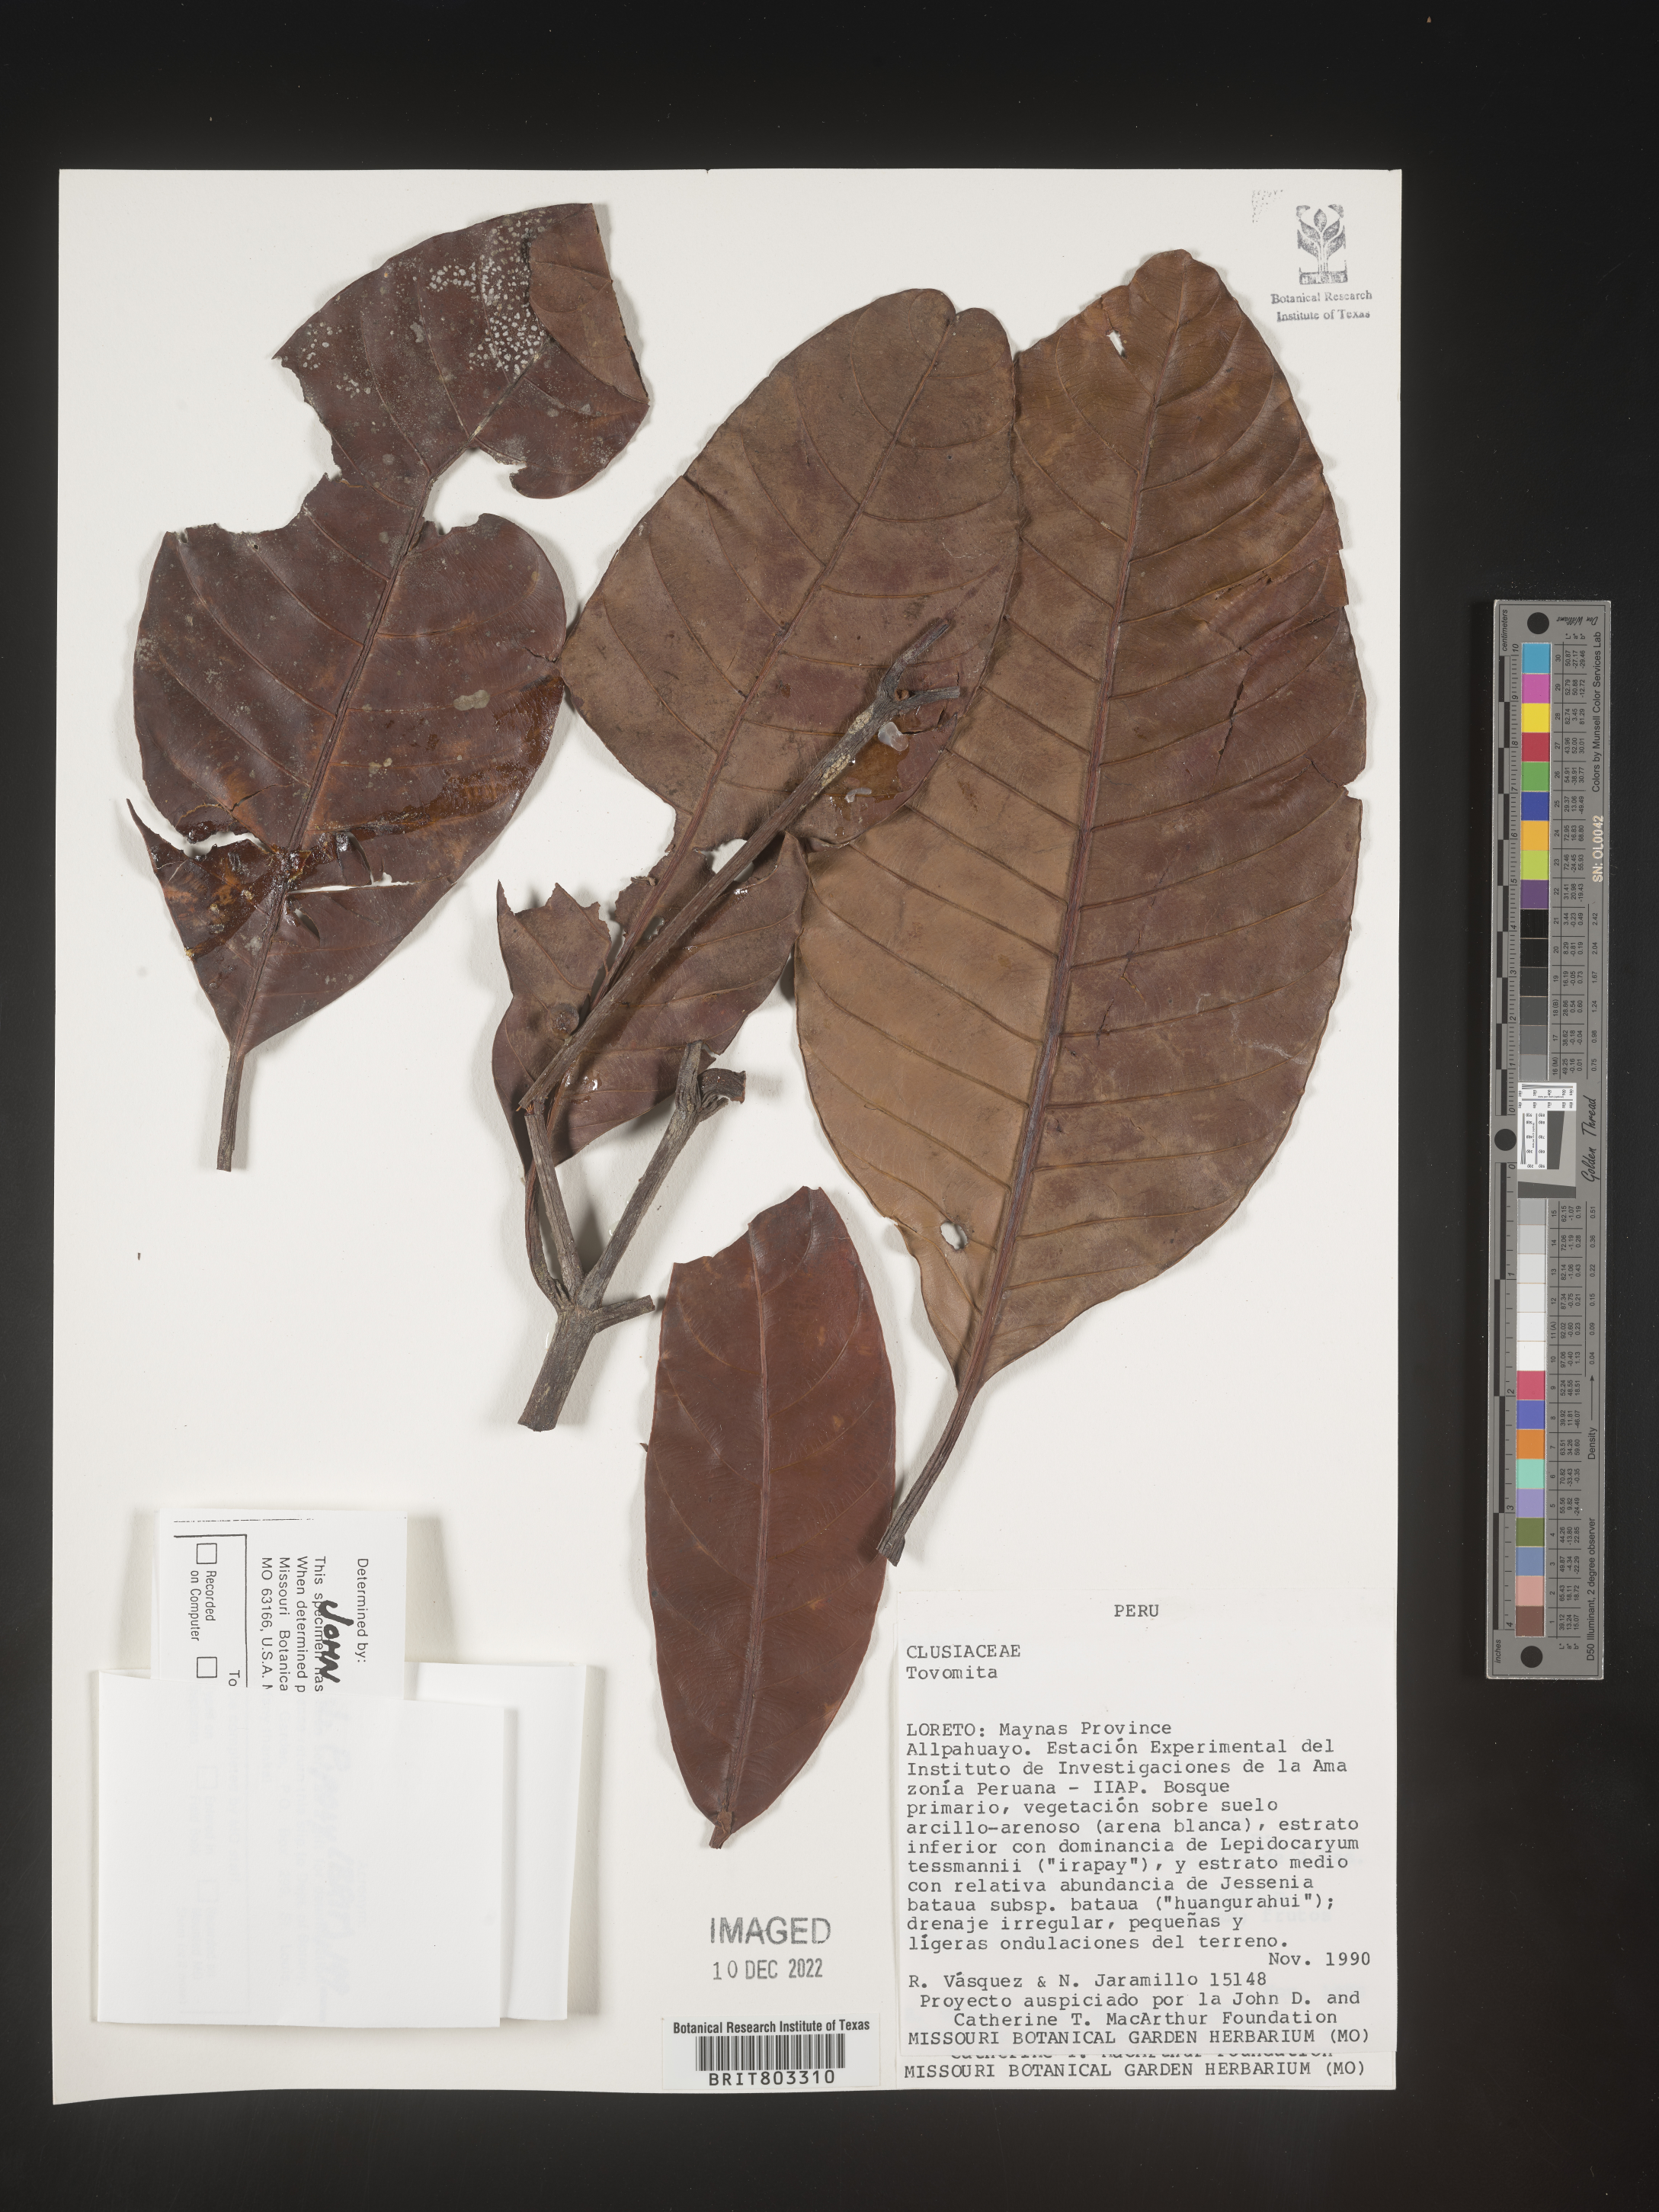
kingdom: Plantae
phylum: Tracheophyta
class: Magnoliopsida
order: Malpighiales
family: Clusiaceae
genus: Tovomita
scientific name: Tovomita
